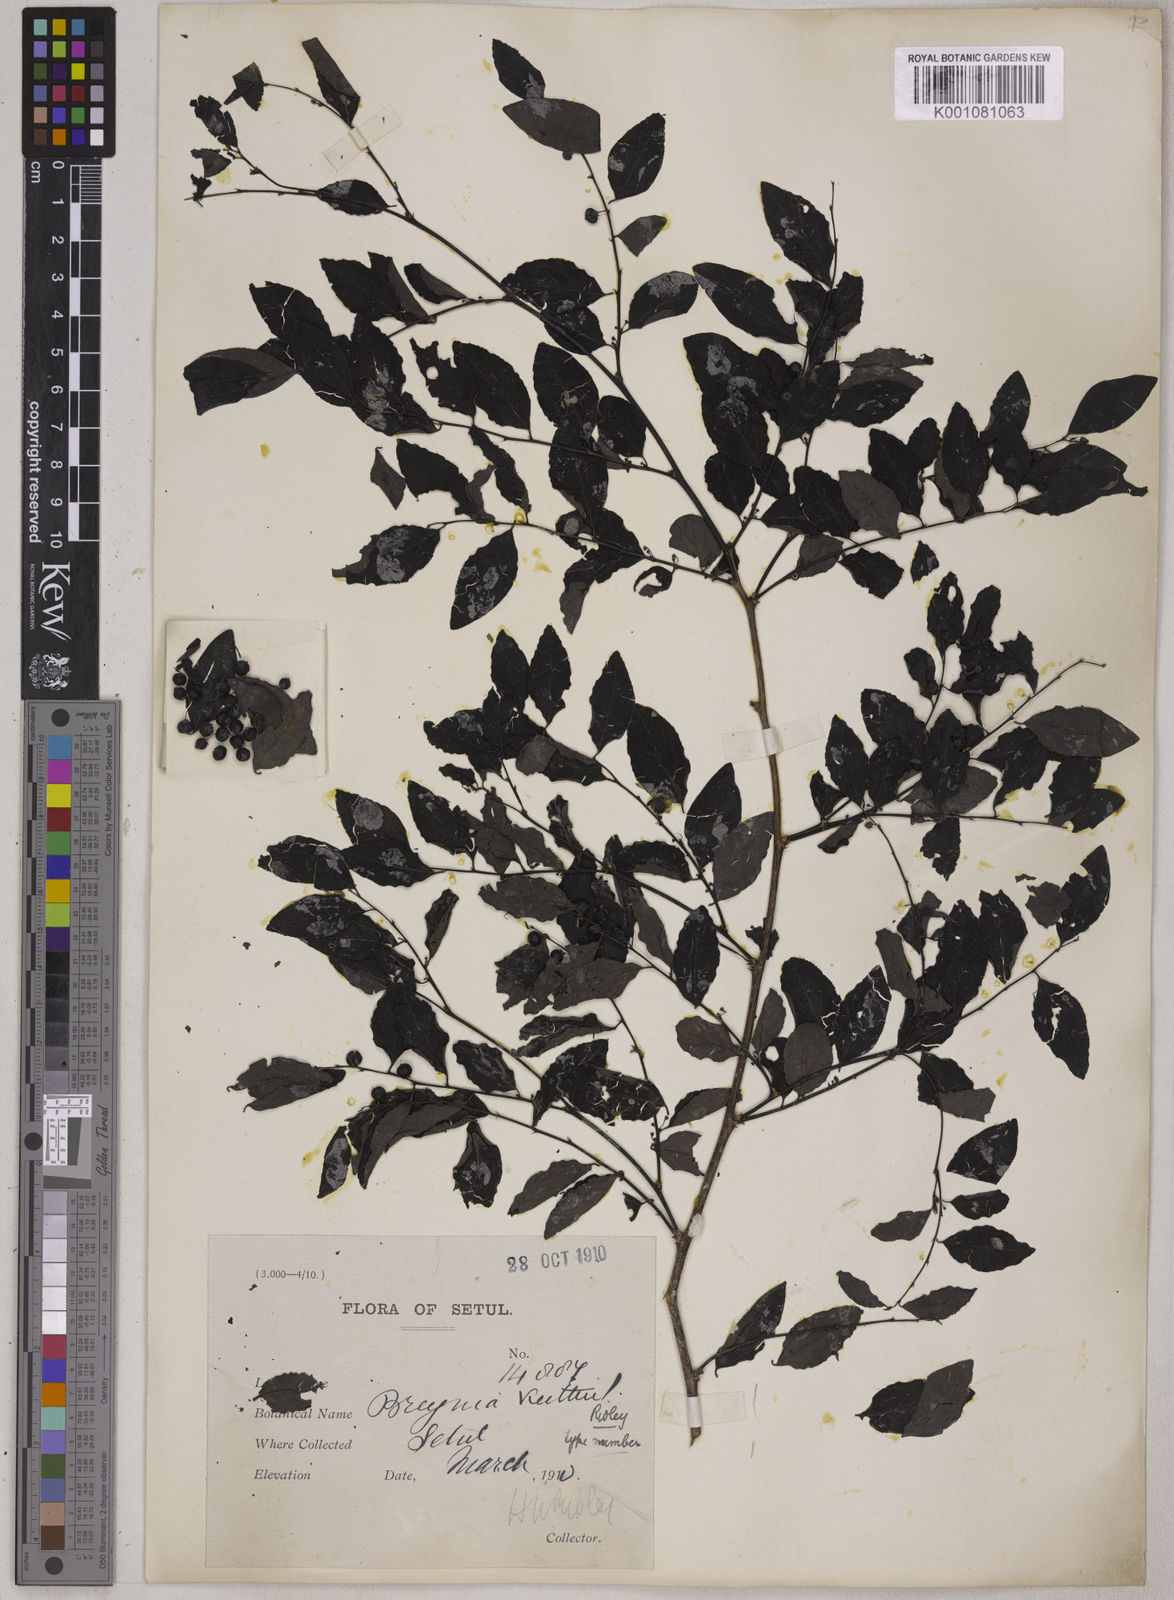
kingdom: Plantae
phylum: Tracheophyta
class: Magnoliopsida
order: Malpighiales
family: Phyllanthaceae
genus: Breynia
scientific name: Breynia vitis-idaea
